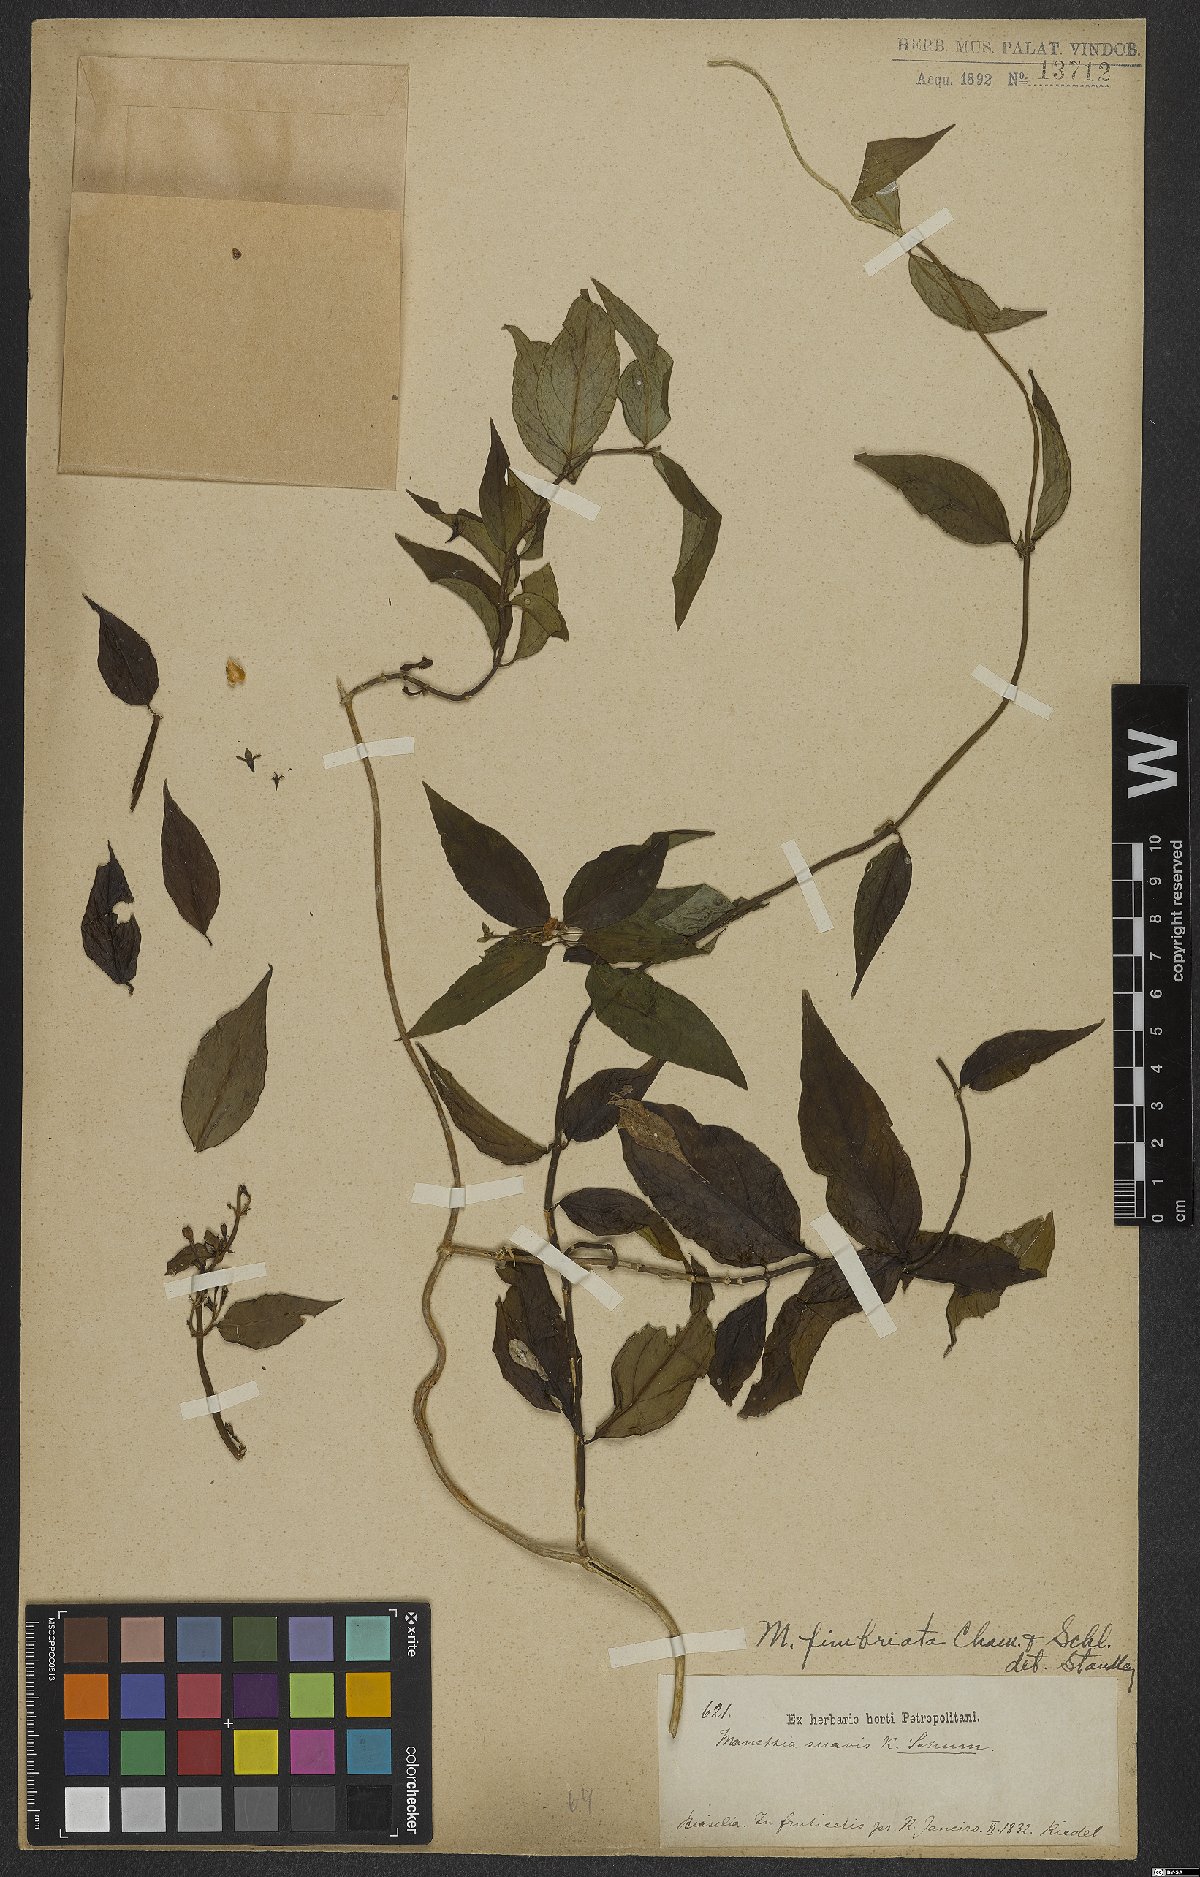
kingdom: Plantae
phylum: Tracheophyta
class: Magnoliopsida
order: Gentianales
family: Rubiaceae
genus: Manettia
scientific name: Manettia fimbriata
